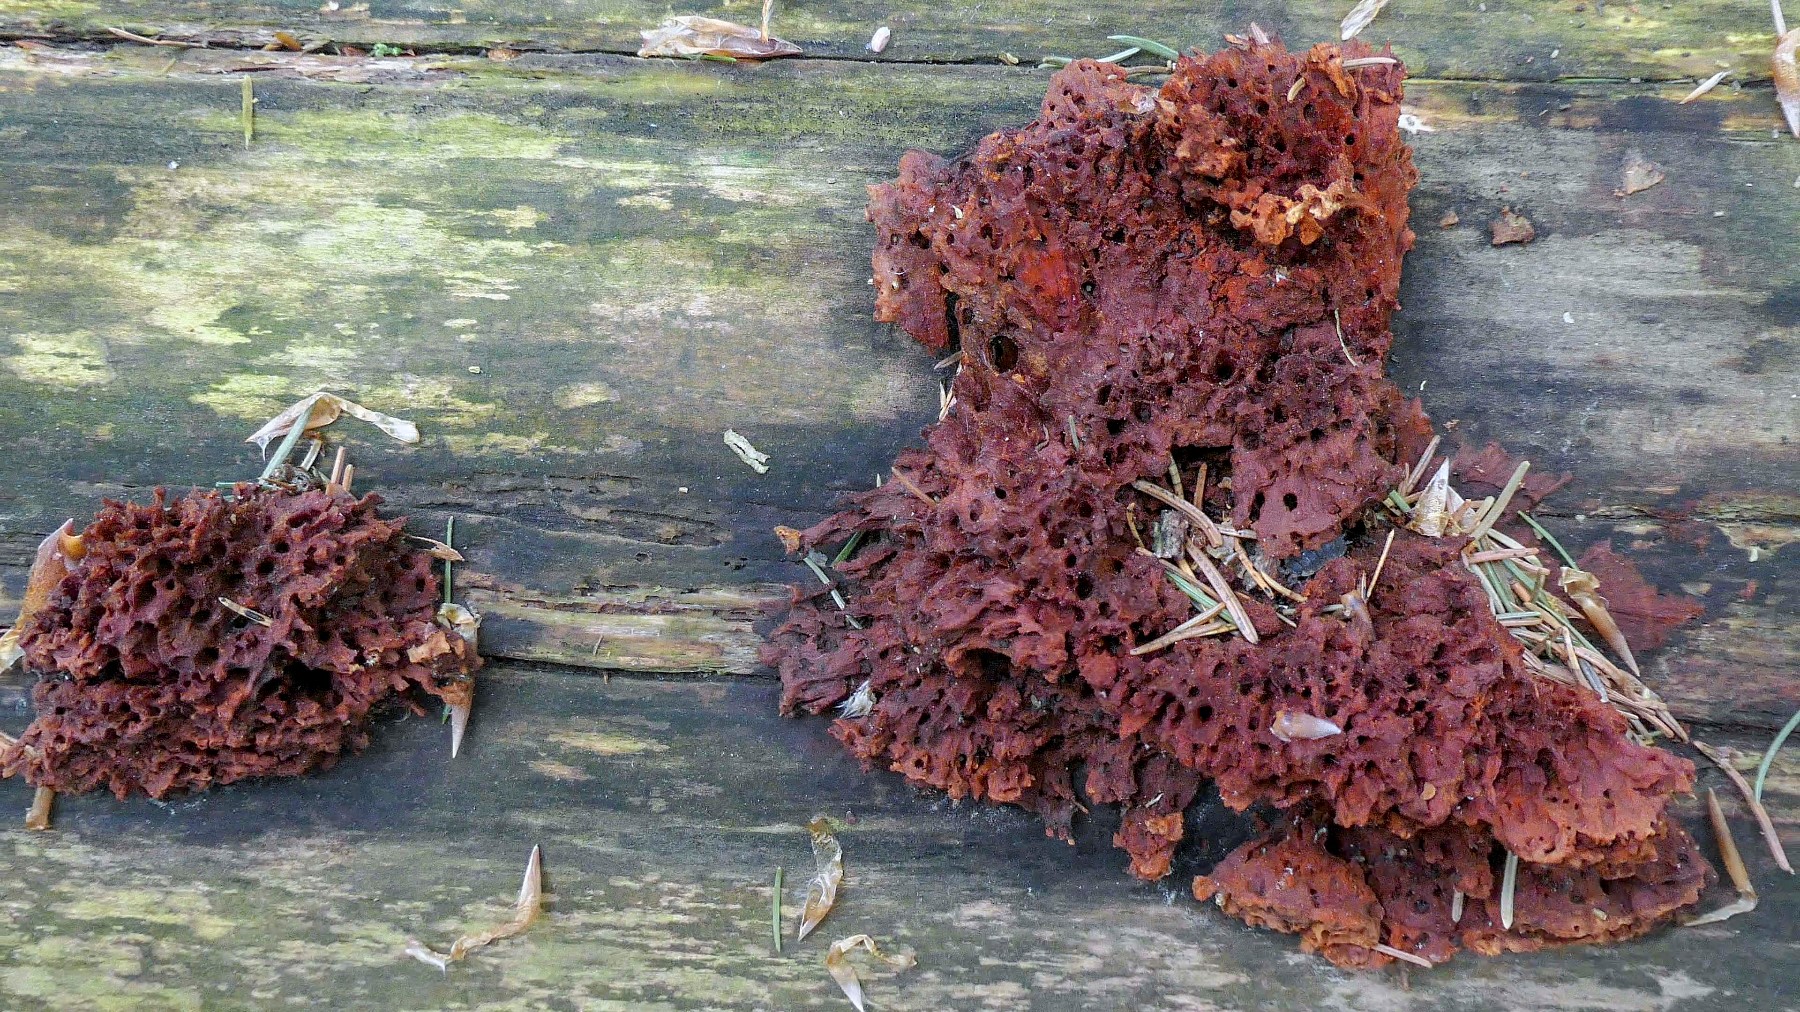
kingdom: Fungi
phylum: Basidiomycota
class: Agaricomycetes
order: Polyporales
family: Pycnoporellaceae
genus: Pycnoporellus
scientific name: Pycnoporellus fulgens
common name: flammeporesvamp
